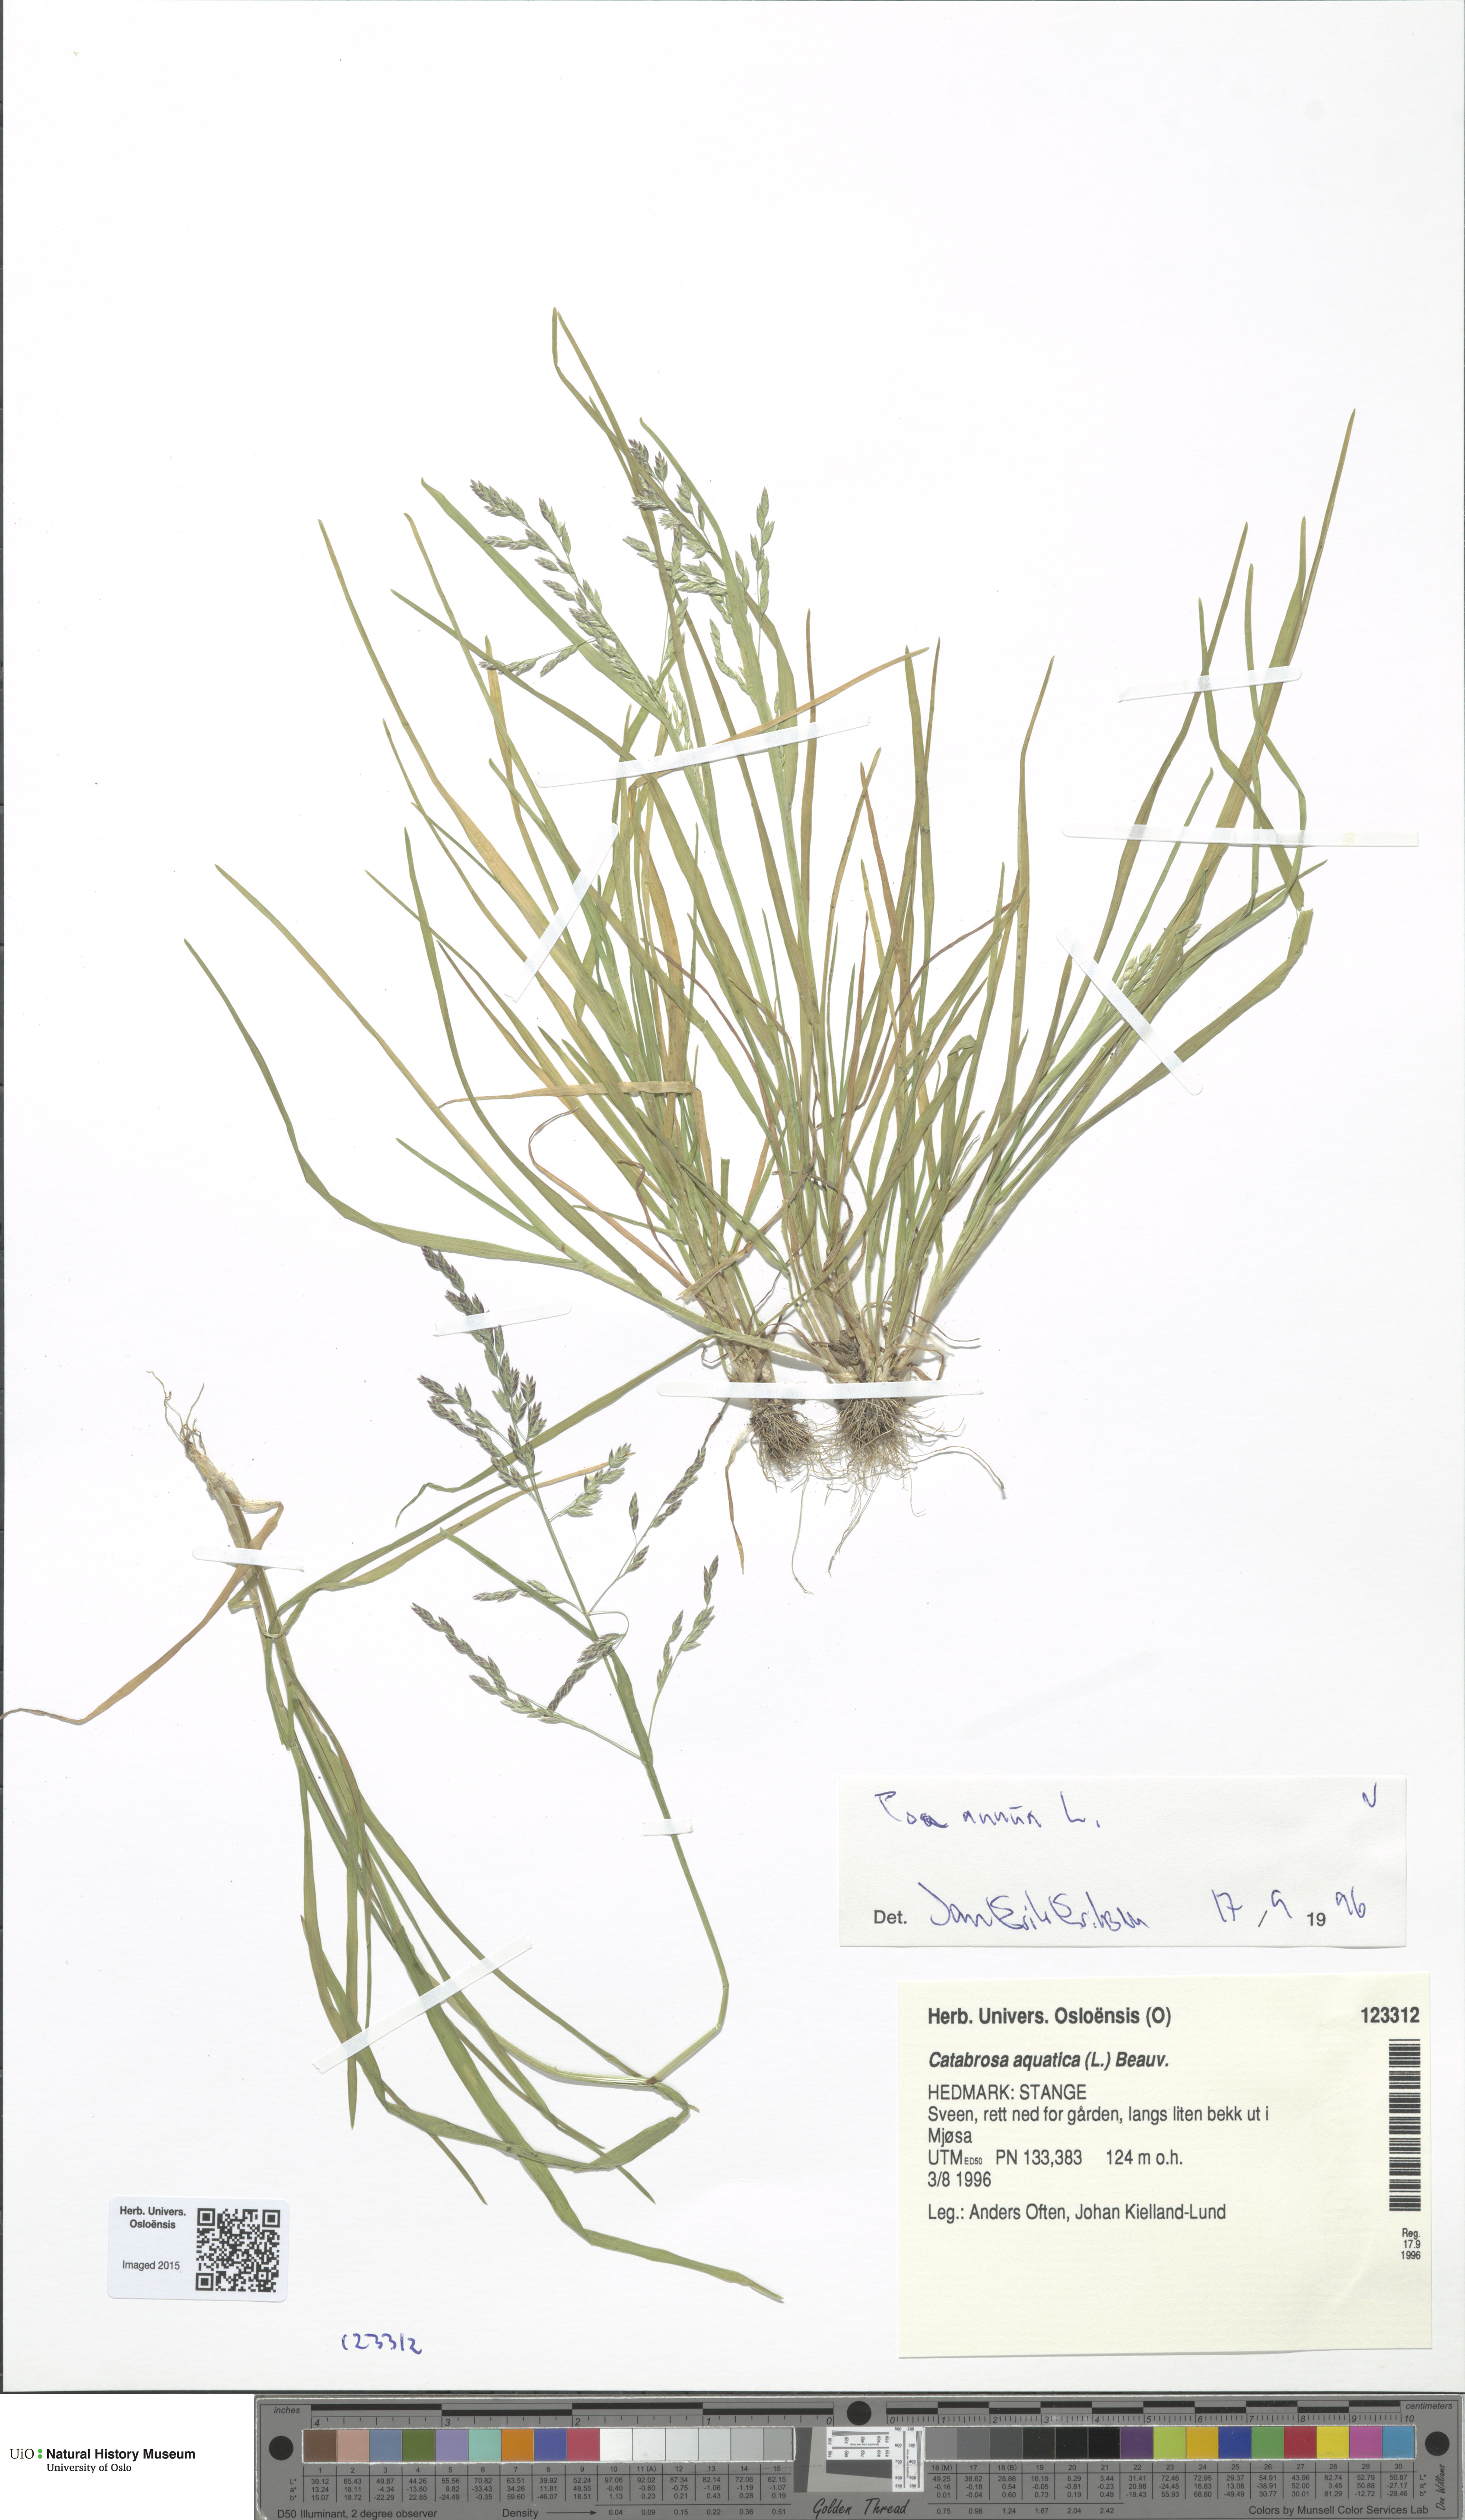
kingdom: Plantae
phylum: Tracheophyta
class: Liliopsida
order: Poales
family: Poaceae
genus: Poa
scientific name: Poa annua
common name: Annual bluegrass
